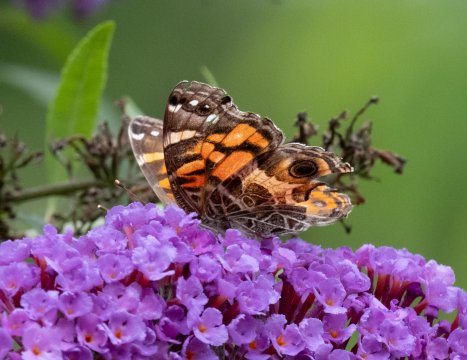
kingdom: Animalia
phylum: Arthropoda
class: Insecta
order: Lepidoptera
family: Nymphalidae
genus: Vanessa
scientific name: Vanessa virginiensis
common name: American Lady
